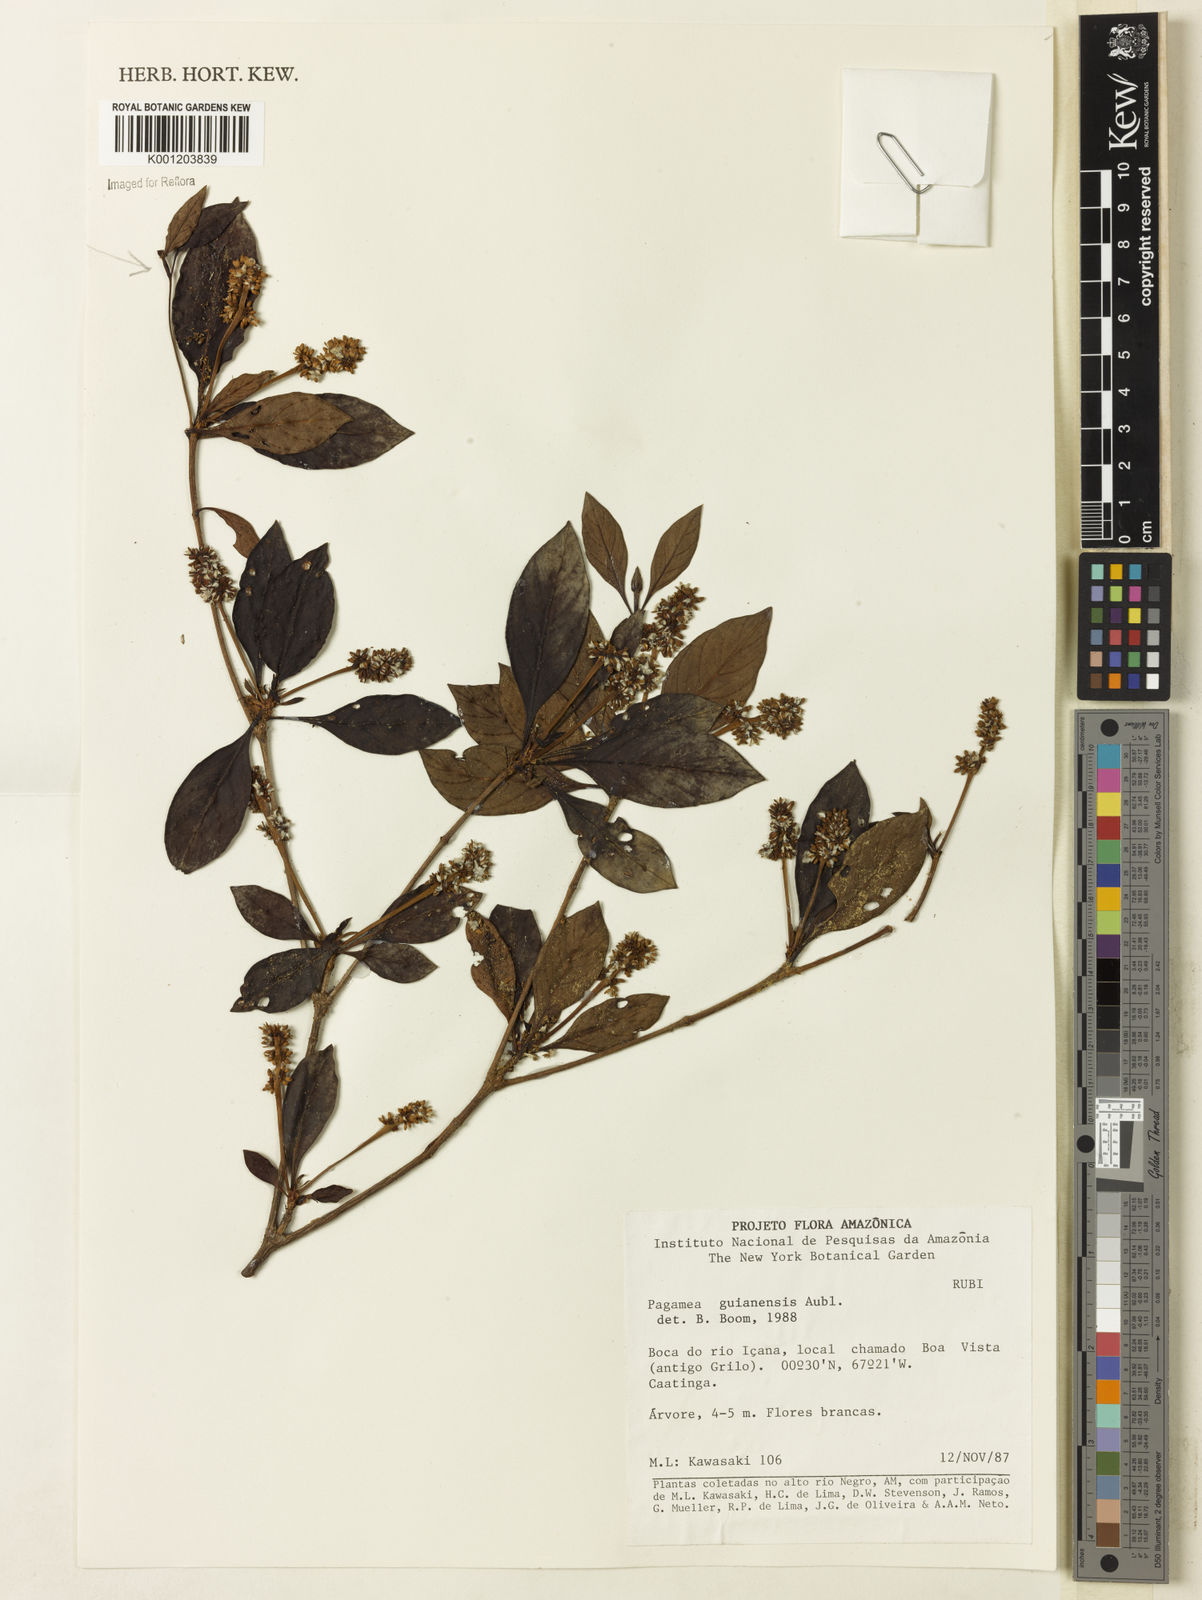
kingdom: Plantae
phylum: Tracheophyta
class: Magnoliopsida
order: Gentianales
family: Rubiaceae
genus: Pagamea
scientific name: Pagamea guianensis
